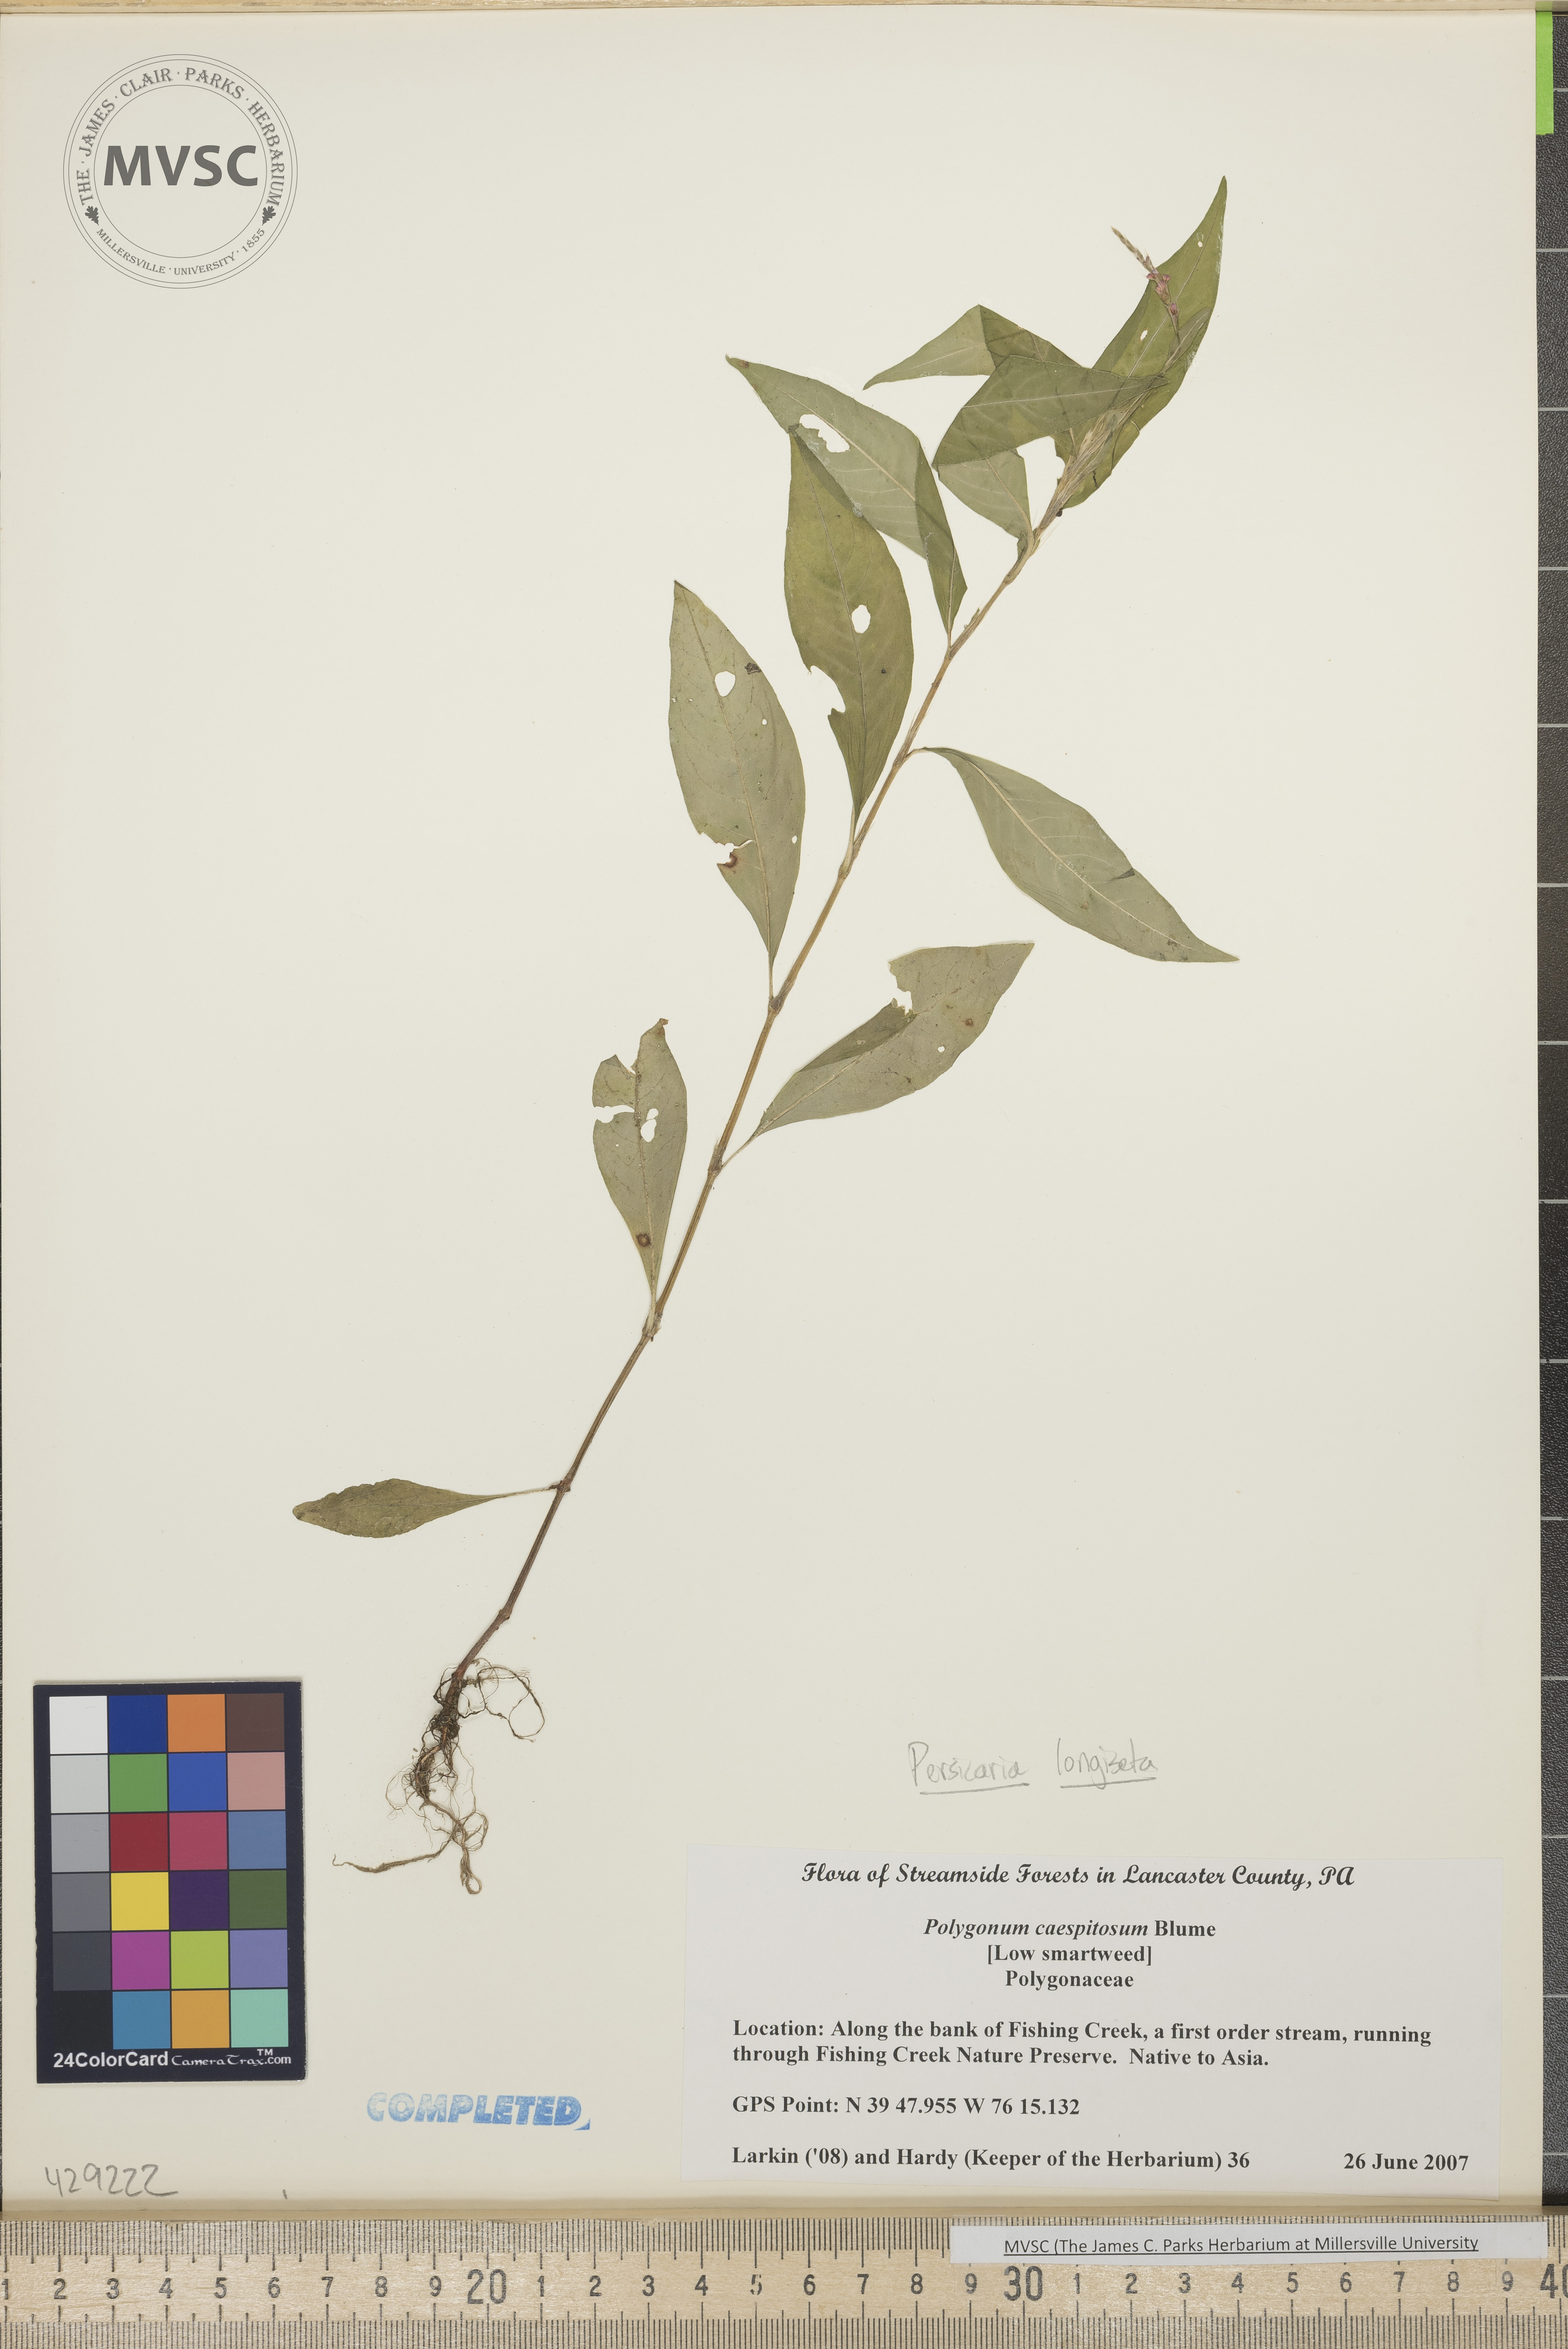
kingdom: Plantae
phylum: Tracheophyta
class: Magnoliopsida
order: Caryophyllales
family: Polygonaceae
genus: Persicaria
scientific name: Persicaria longiseta
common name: Smartweed
